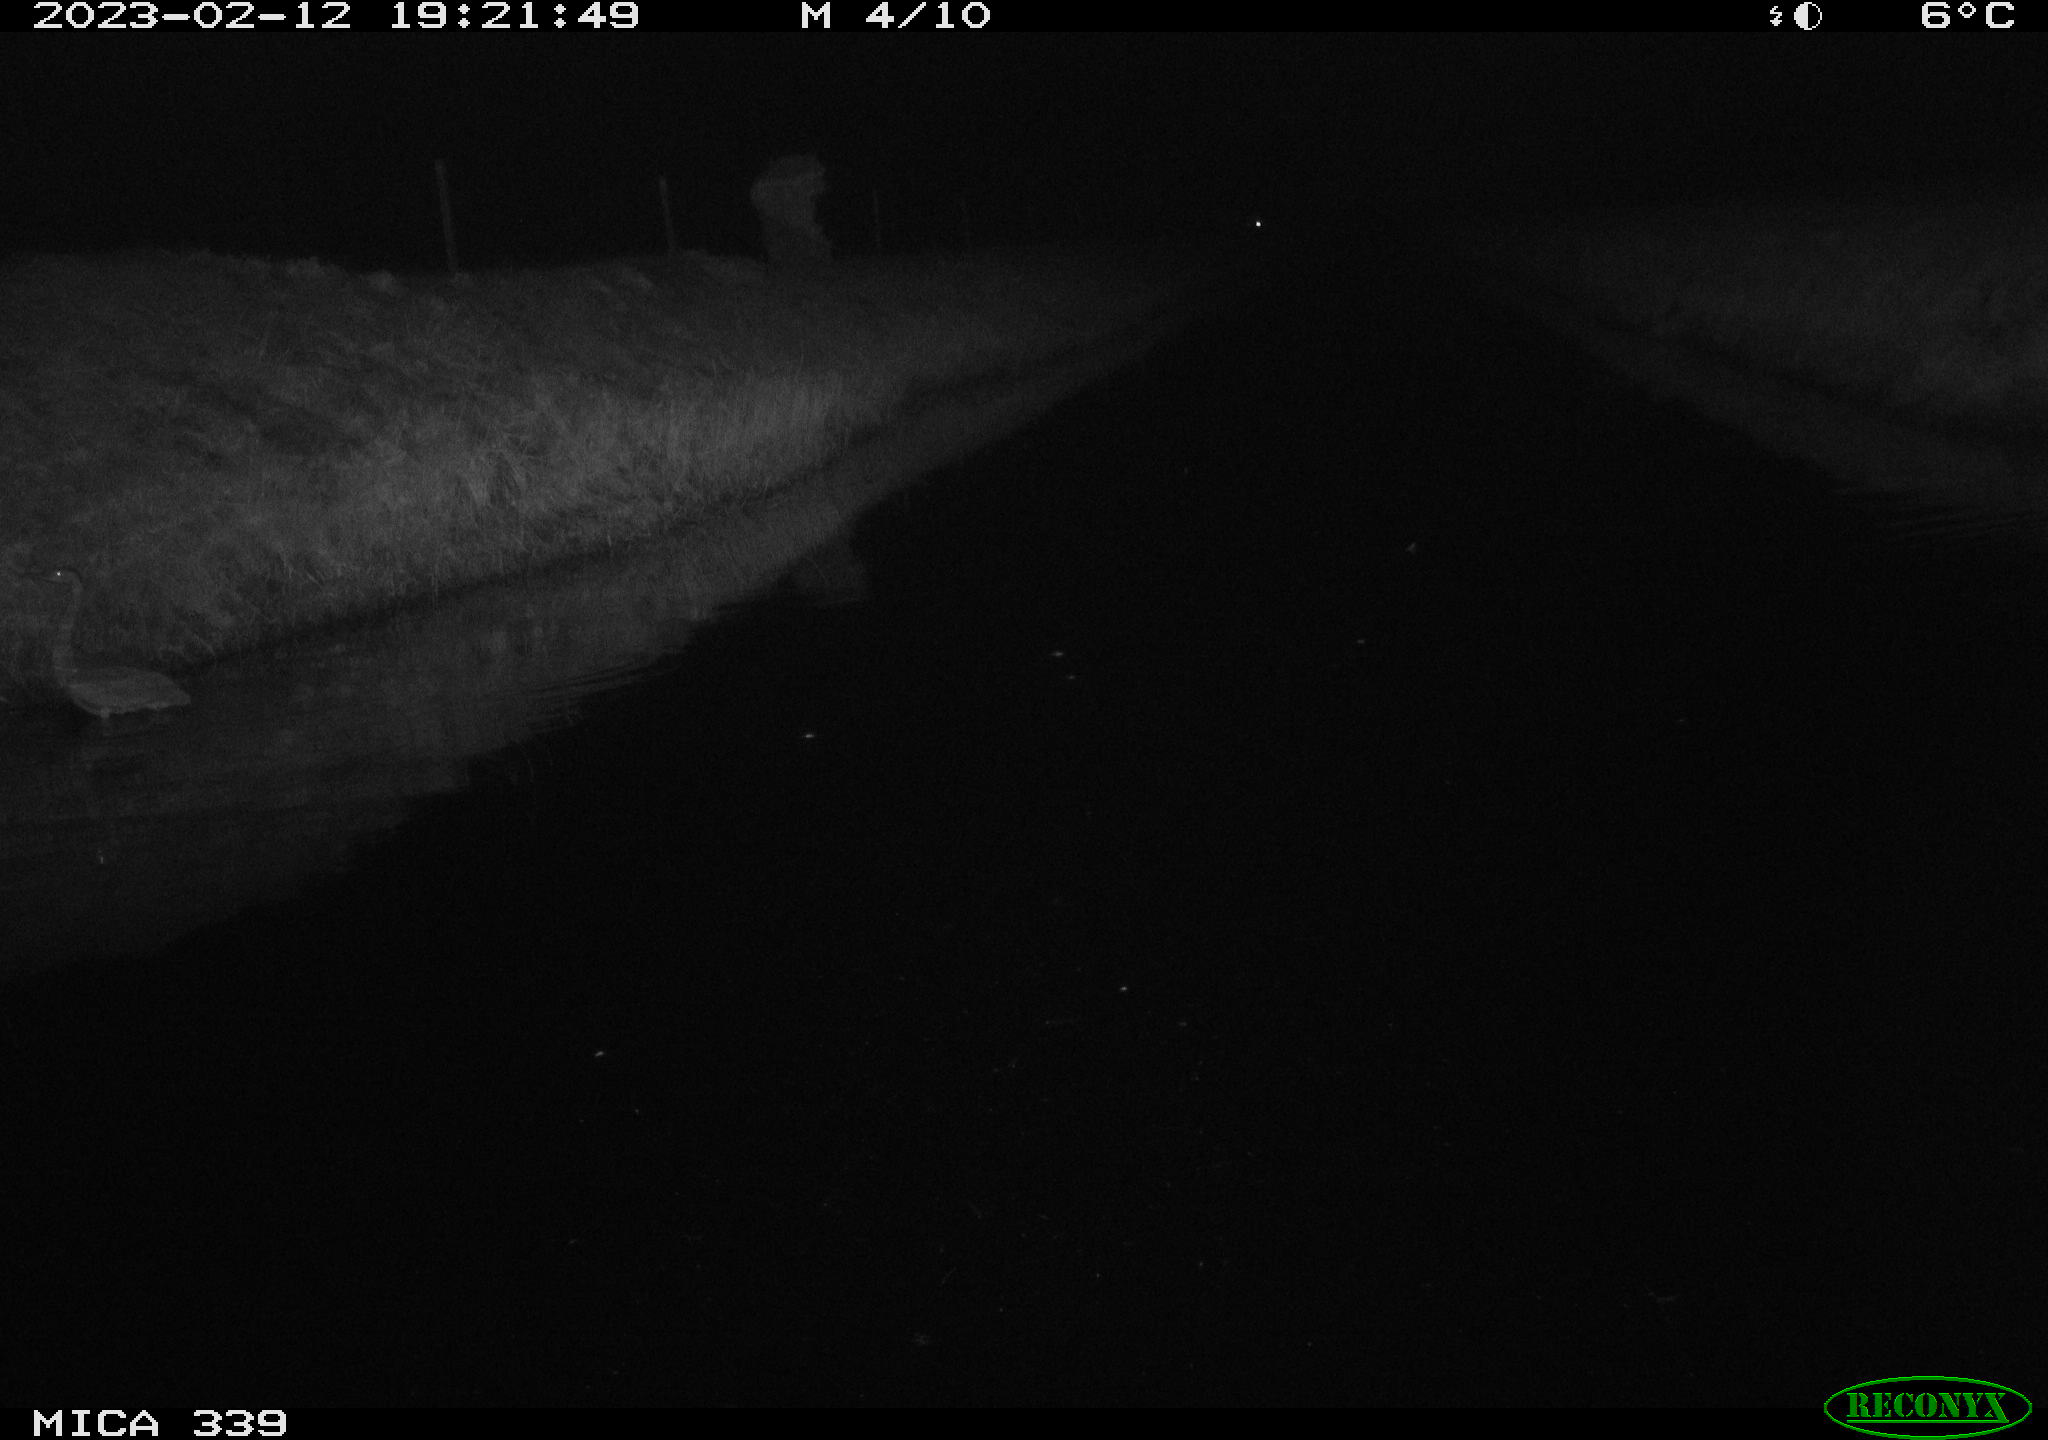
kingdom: Animalia
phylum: Chordata
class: Aves
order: Pelecaniformes
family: Ardeidae
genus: Ardea
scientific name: Ardea cinerea
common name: Grey heron
